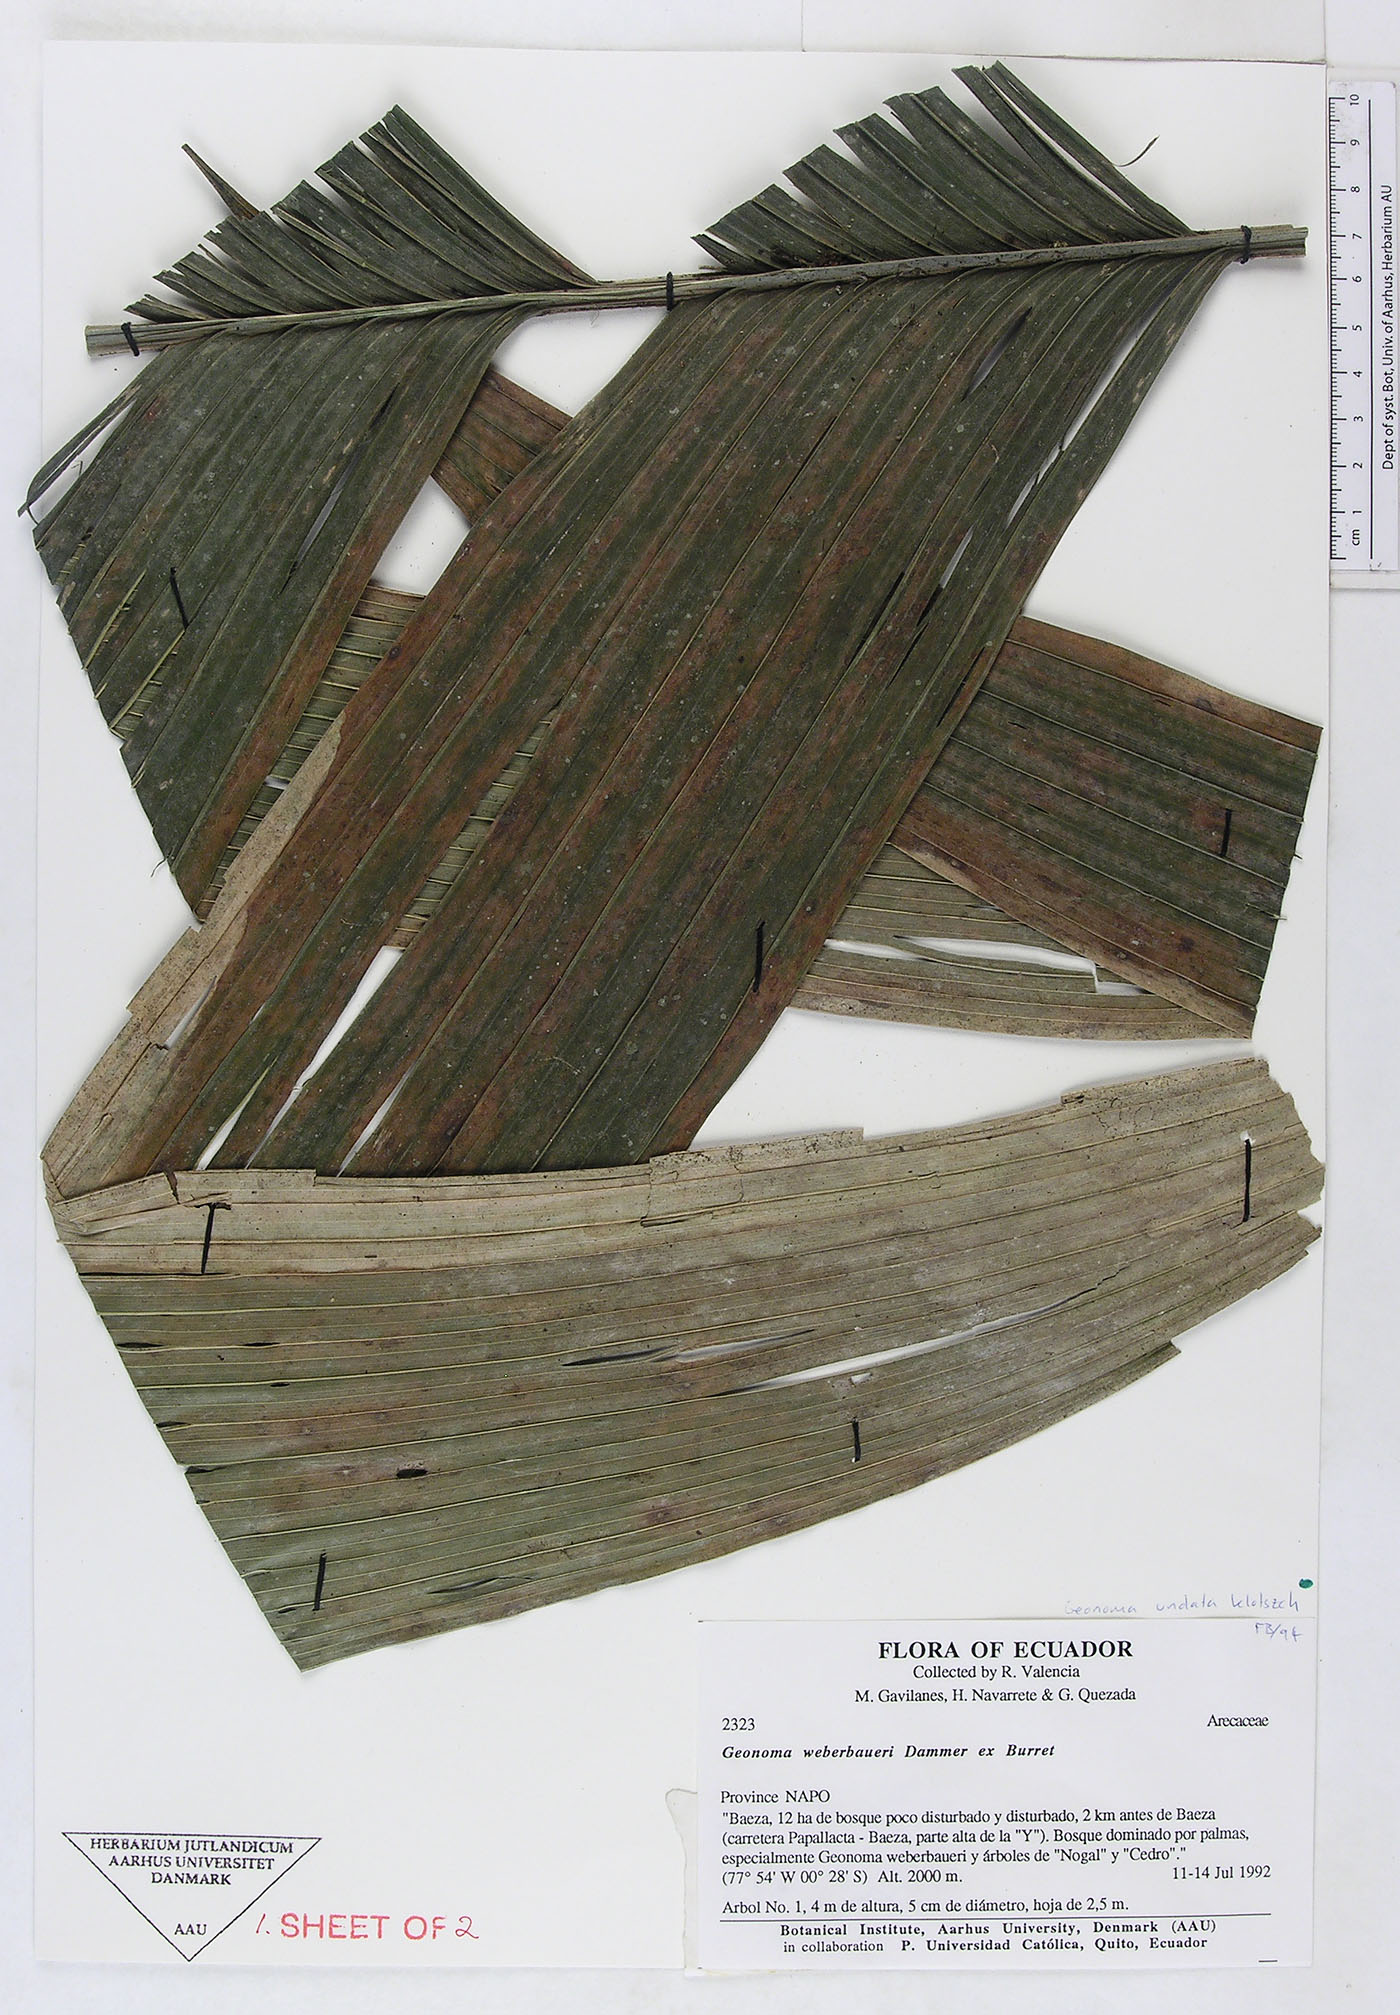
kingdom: Plantae
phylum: Tracheophyta
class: Liliopsida
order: Arecales
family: Arecaceae
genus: Geonoma
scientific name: Geonoma undata
